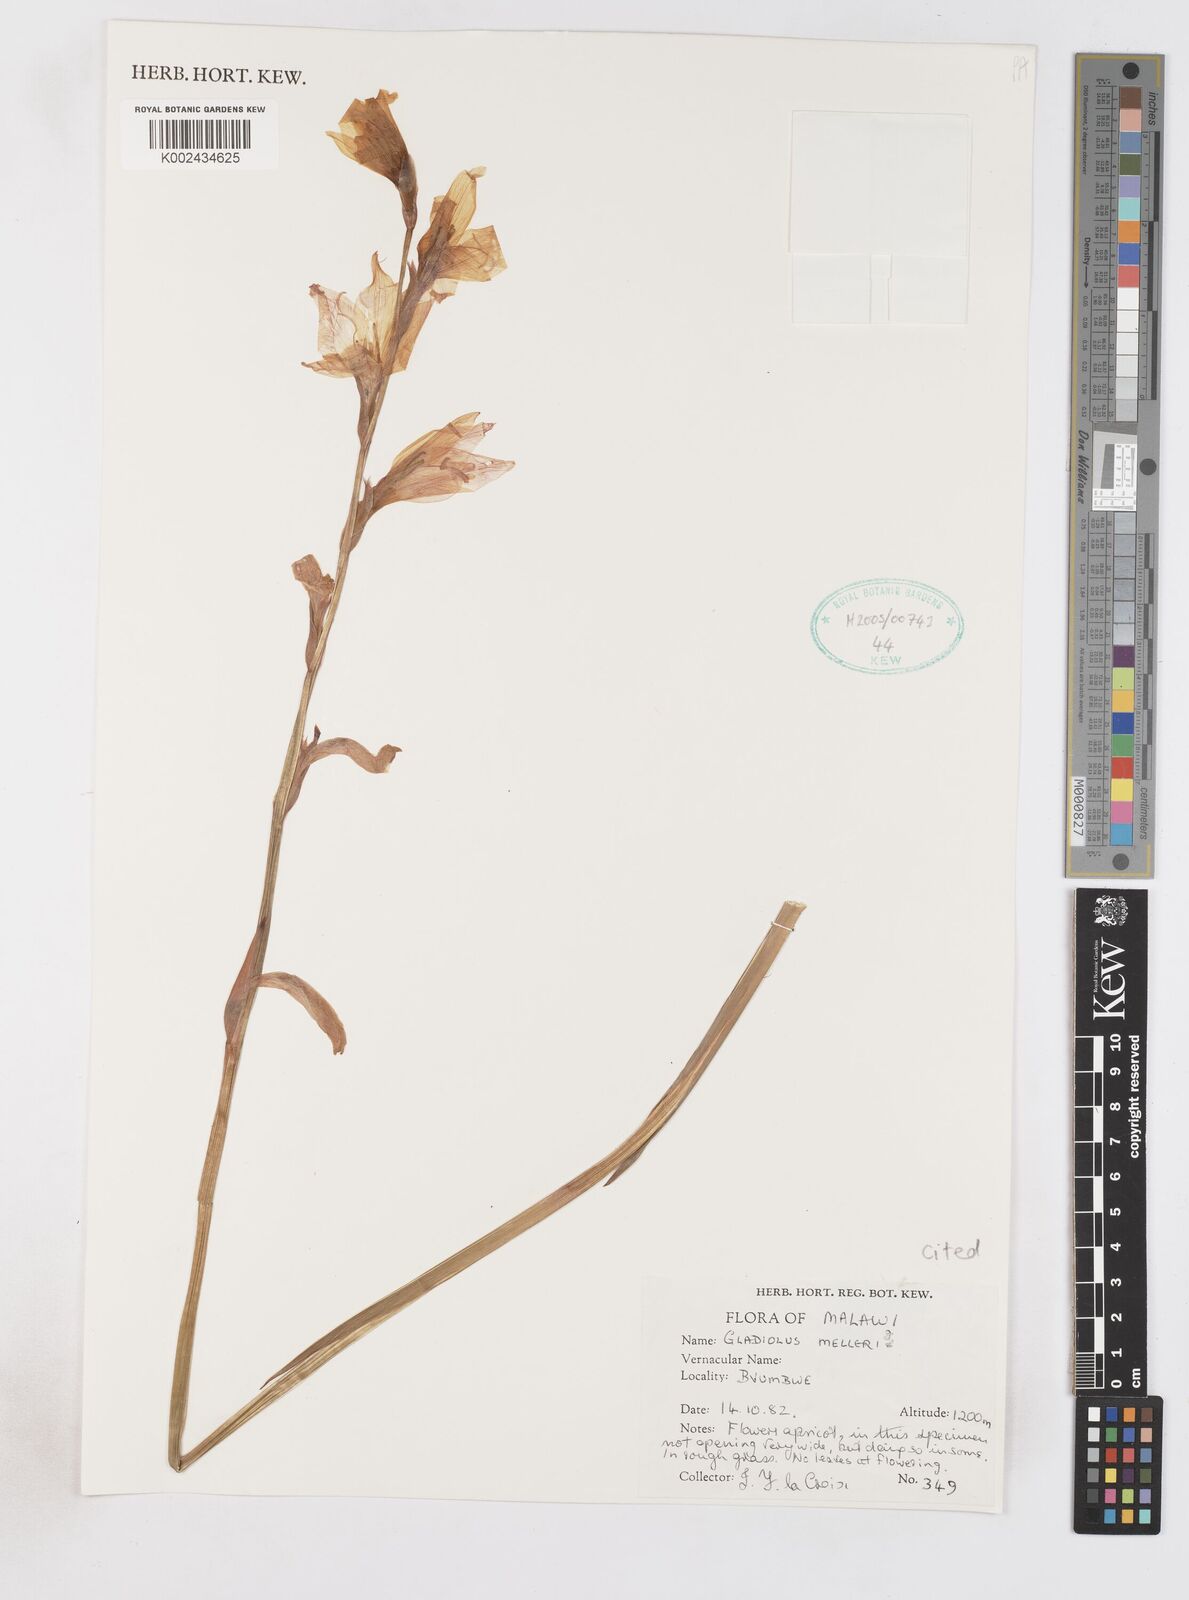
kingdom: Plantae
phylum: Tracheophyta
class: Liliopsida
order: Asparagales
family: Iridaceae
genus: Gladiolus
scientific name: Gladiolus melleri
